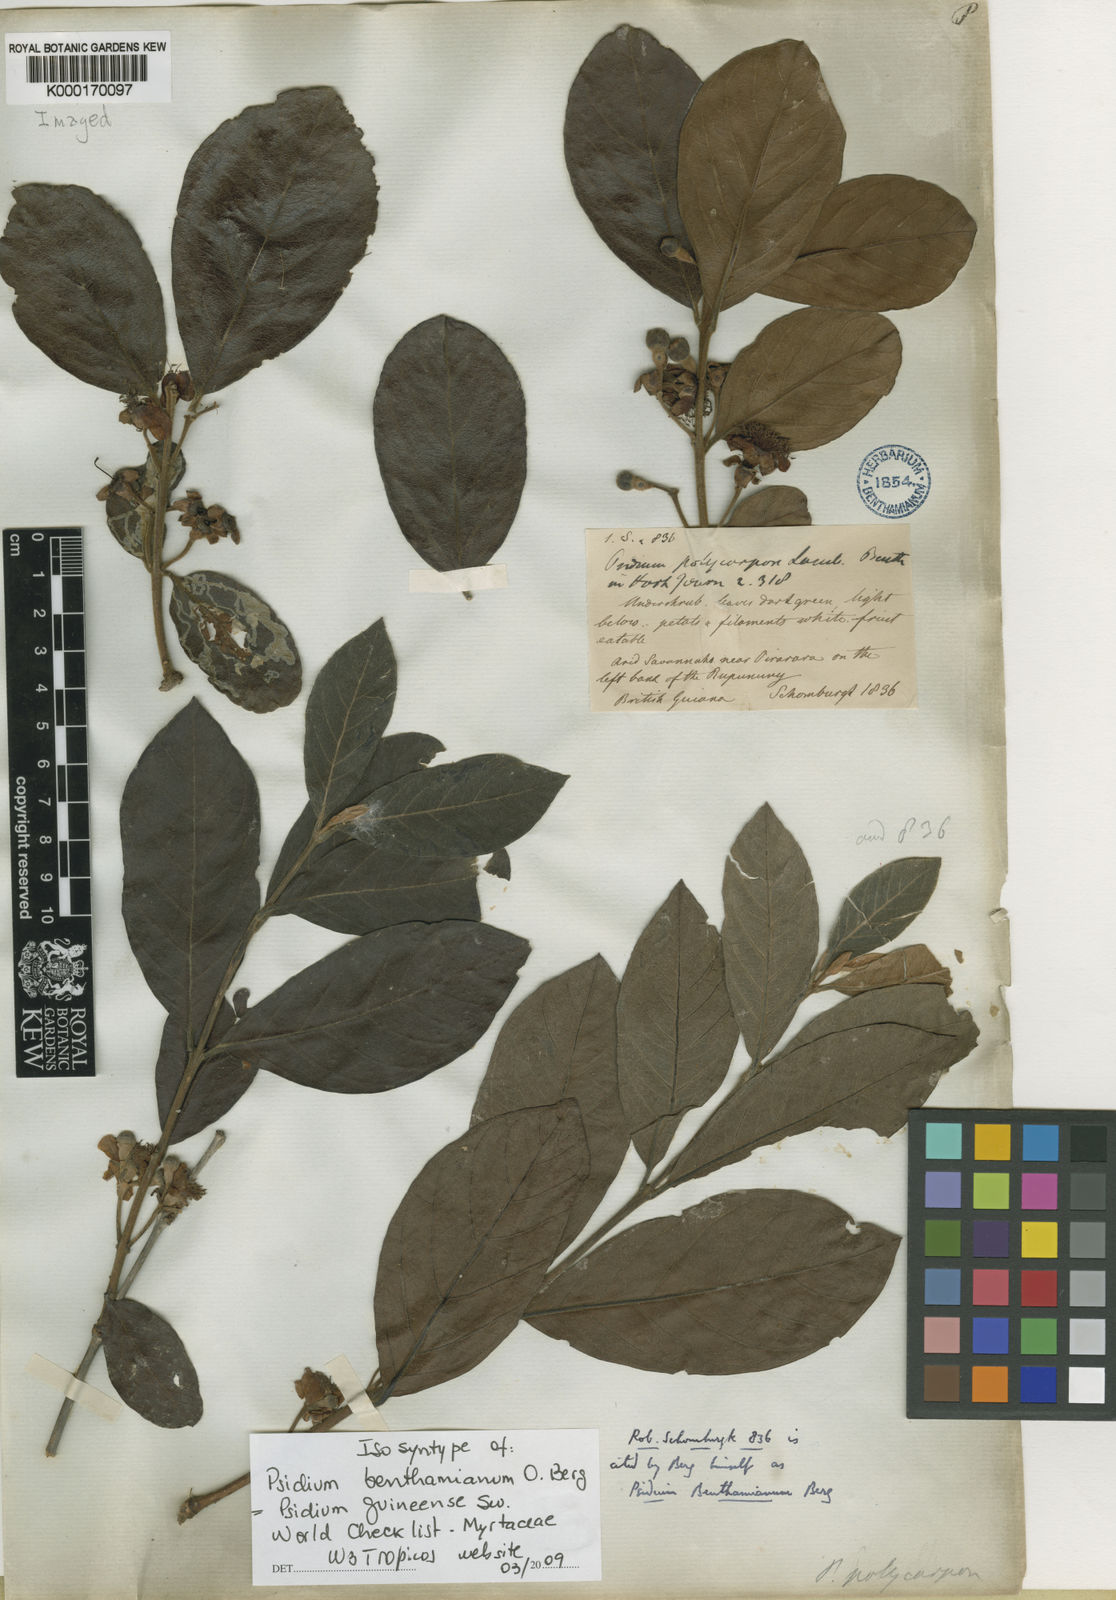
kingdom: Plantae
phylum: Tracheophyta
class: Magnoliopsida
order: Myrtales
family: Myrtaceae
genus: Psidium
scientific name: Psidium guineense
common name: Brazilian guava
